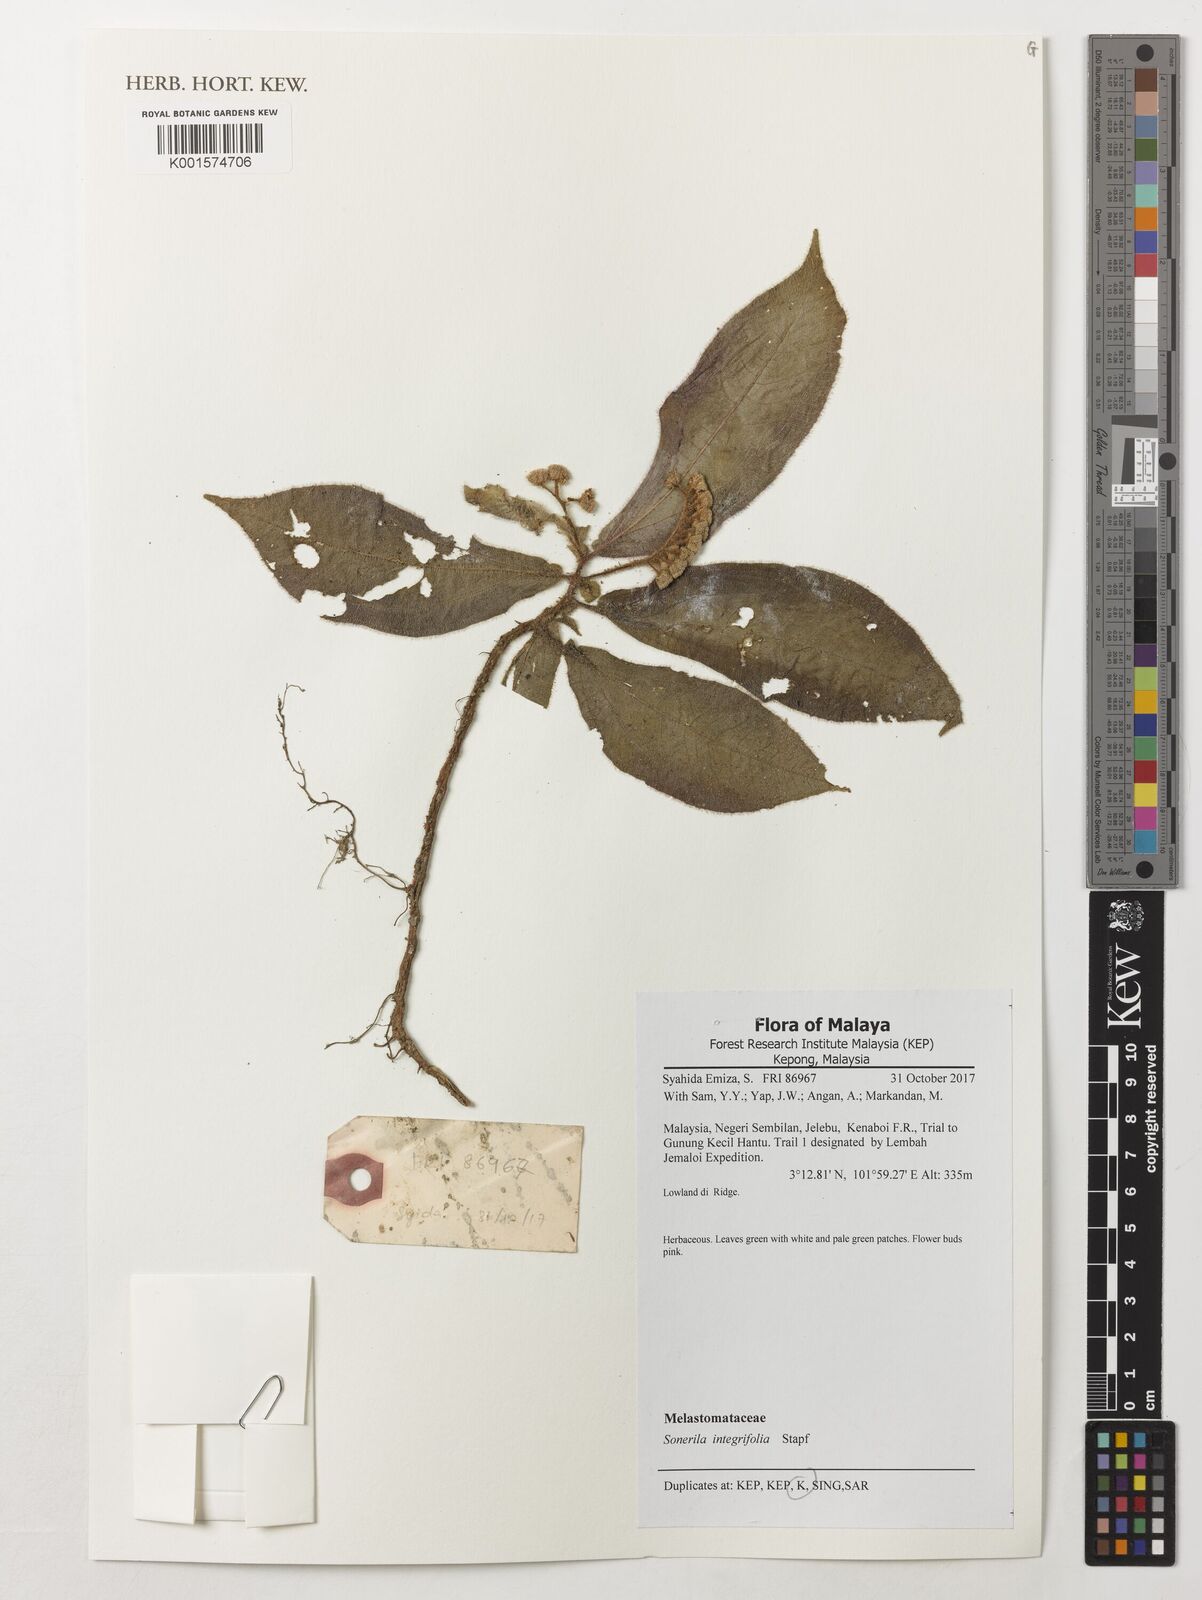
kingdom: Plantae
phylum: Tracheophyta
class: Magnoliopsida
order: Myrtales
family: Melastomataceae
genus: Sonerila
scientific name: Sonerila integrifolia
